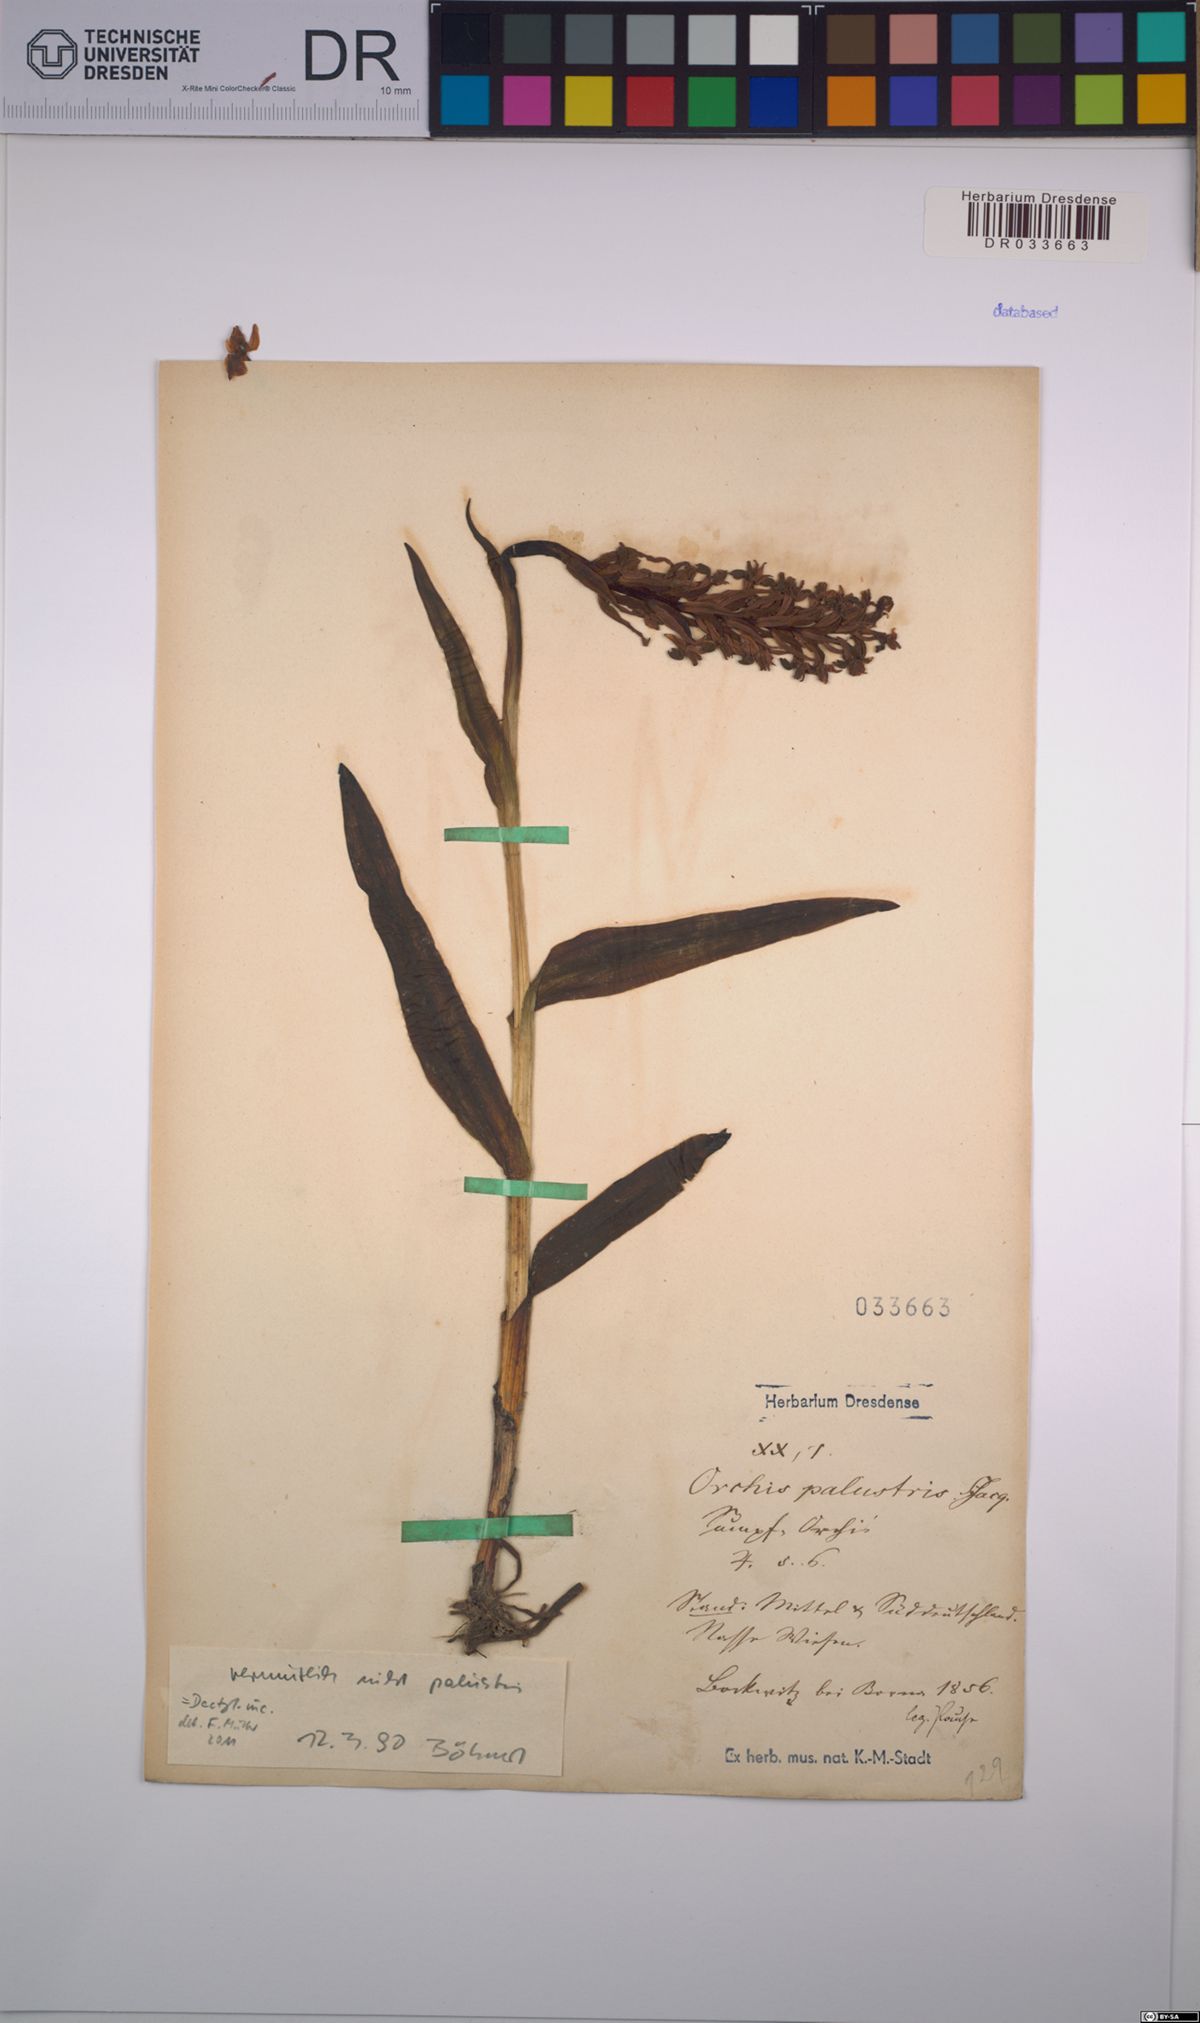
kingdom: Plantae
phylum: Tracheophyta
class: Liliopsida
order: Asparagales
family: Orchidaceae
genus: Dactylorhiza
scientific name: Dactylorhiza incarnata
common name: Early marsh-orchid
